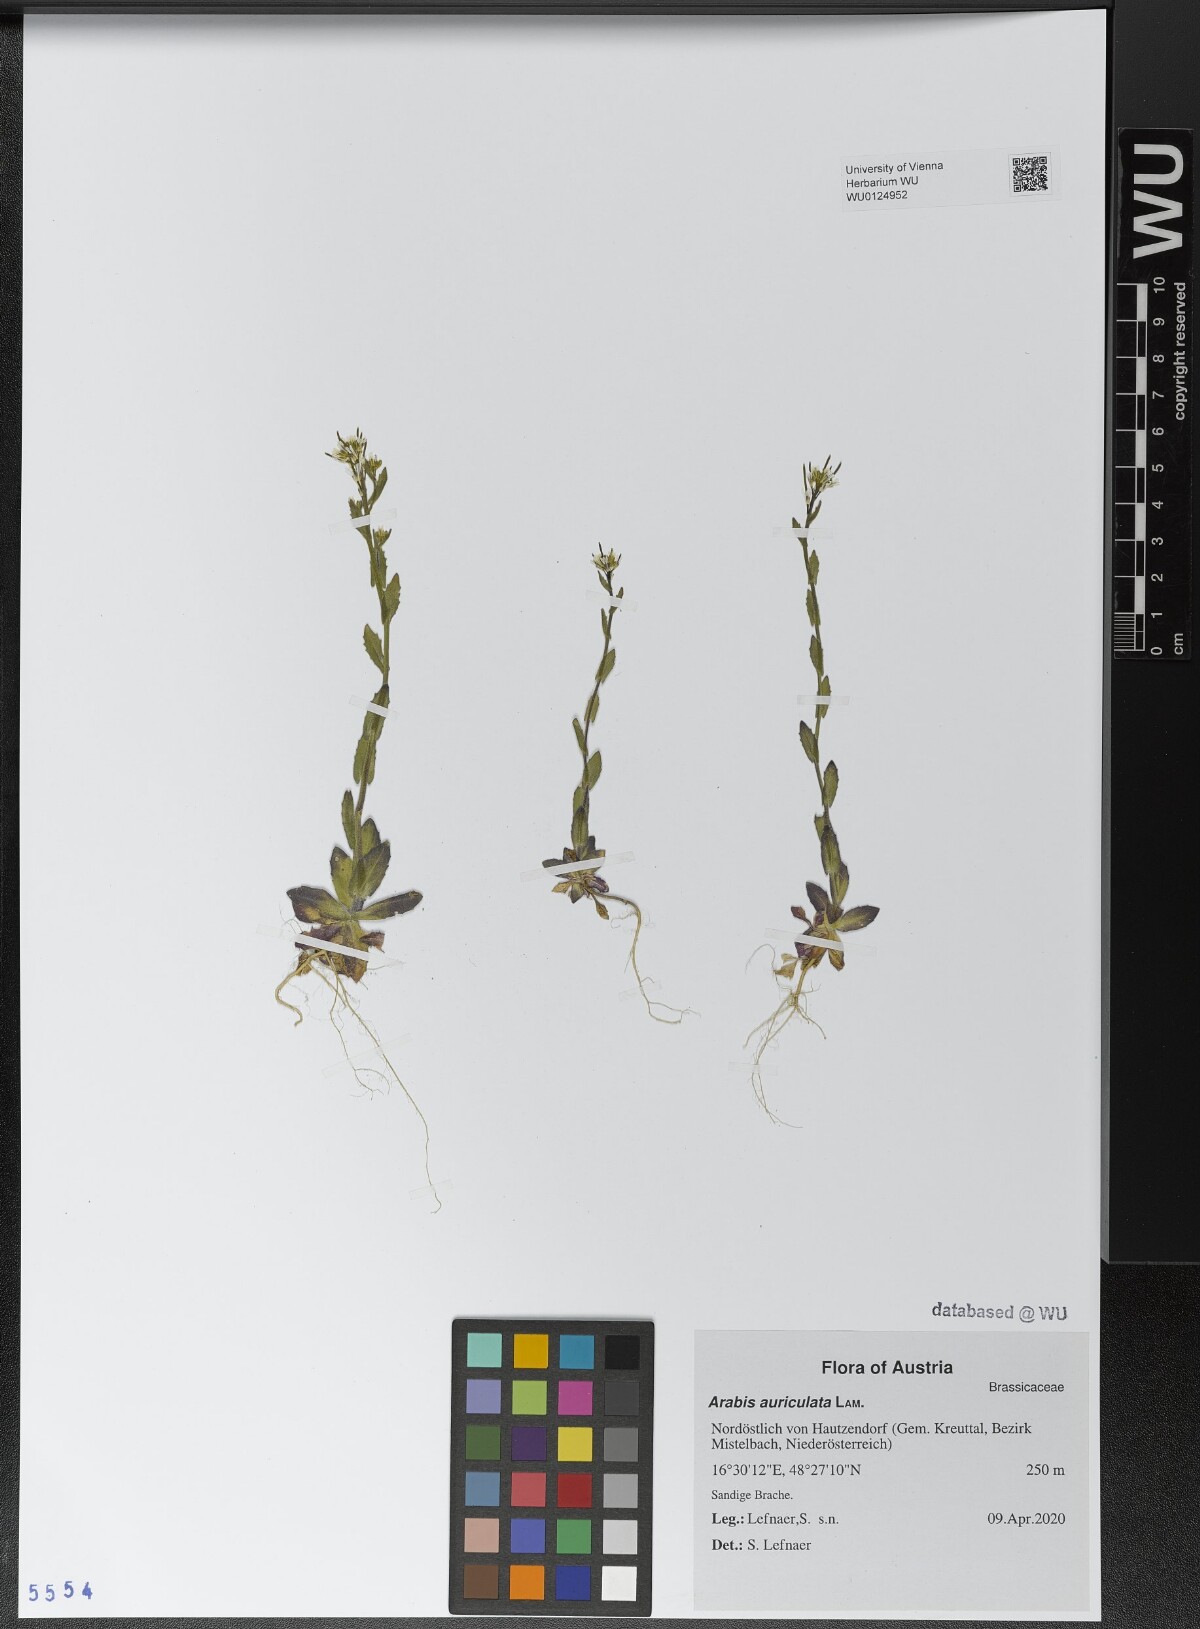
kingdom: Plantae
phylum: Tracheophyta
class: Magnoliopsida
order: Brassicales
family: Brassicaceae
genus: Arabis
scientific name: Arabis auriculata
